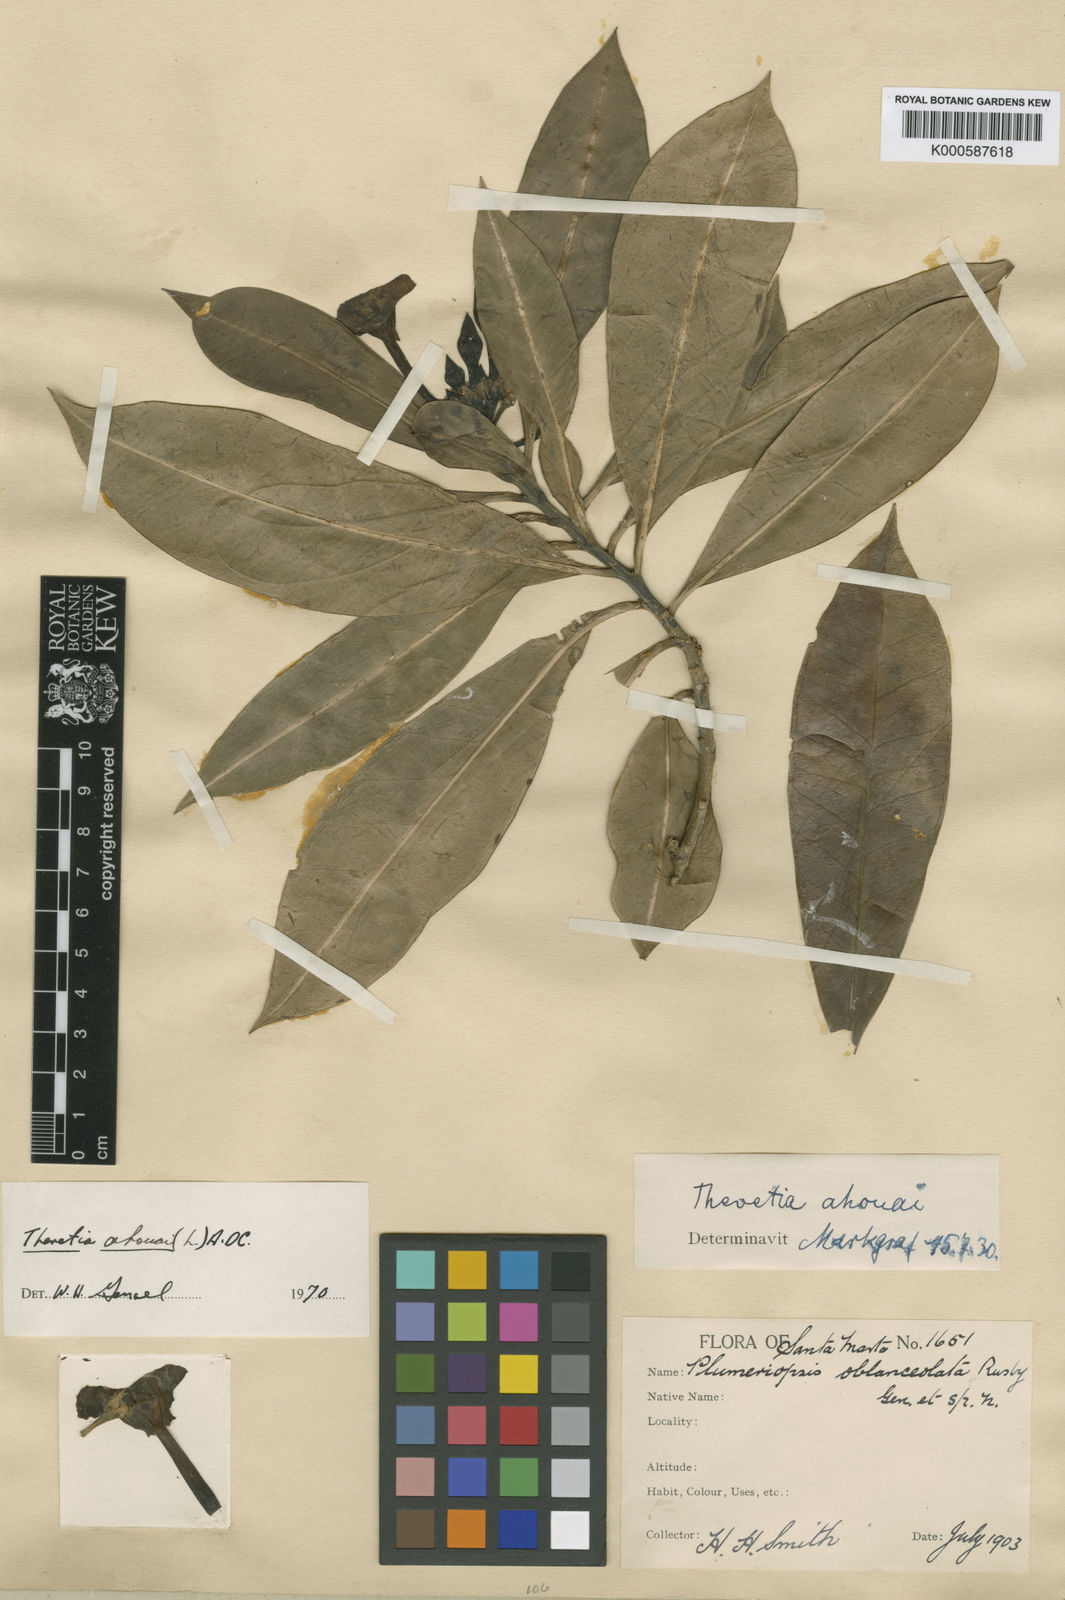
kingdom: Plantae
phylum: Tracheophyta
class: Magnoliopsida
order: Gentianales
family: Apocynaceae
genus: Thevetia
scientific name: Thevetia ahouai
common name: Broadleaf thevetia
